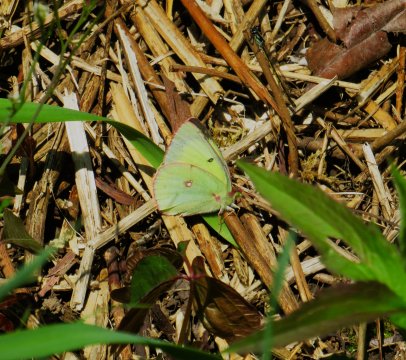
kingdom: Animalia
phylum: Arthropoda
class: Insecta
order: Lepidoptera
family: Pieridae
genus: Colias
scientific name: Colias philodice
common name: Clouded Sulphur
